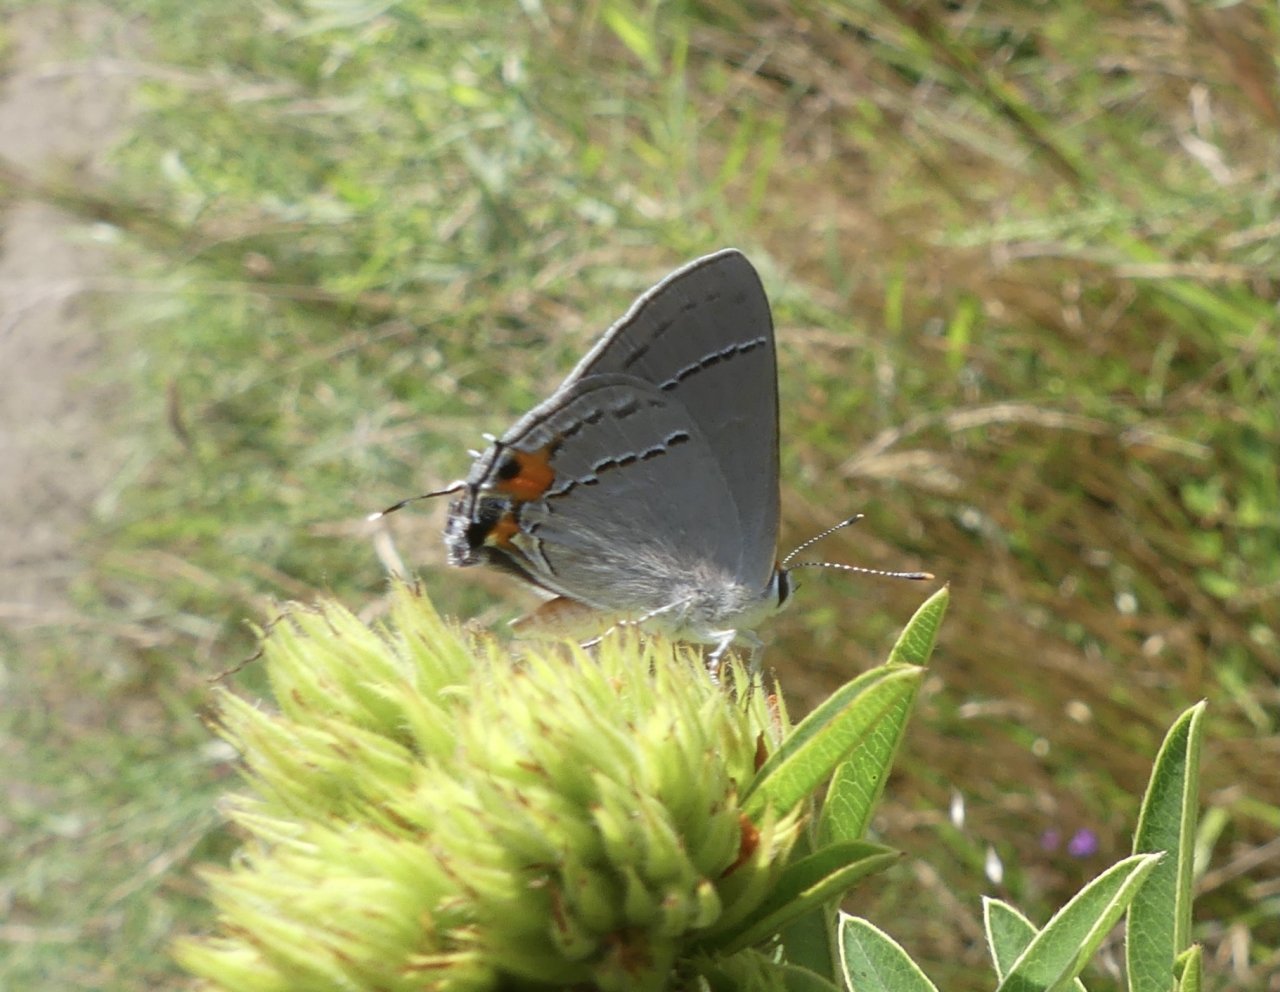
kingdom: Animalia
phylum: Arthropoda
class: Insecta
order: Lepidoptera
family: Lycaenidae
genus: Strymon
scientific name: Strymon melinus
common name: Gray Hairstreak
